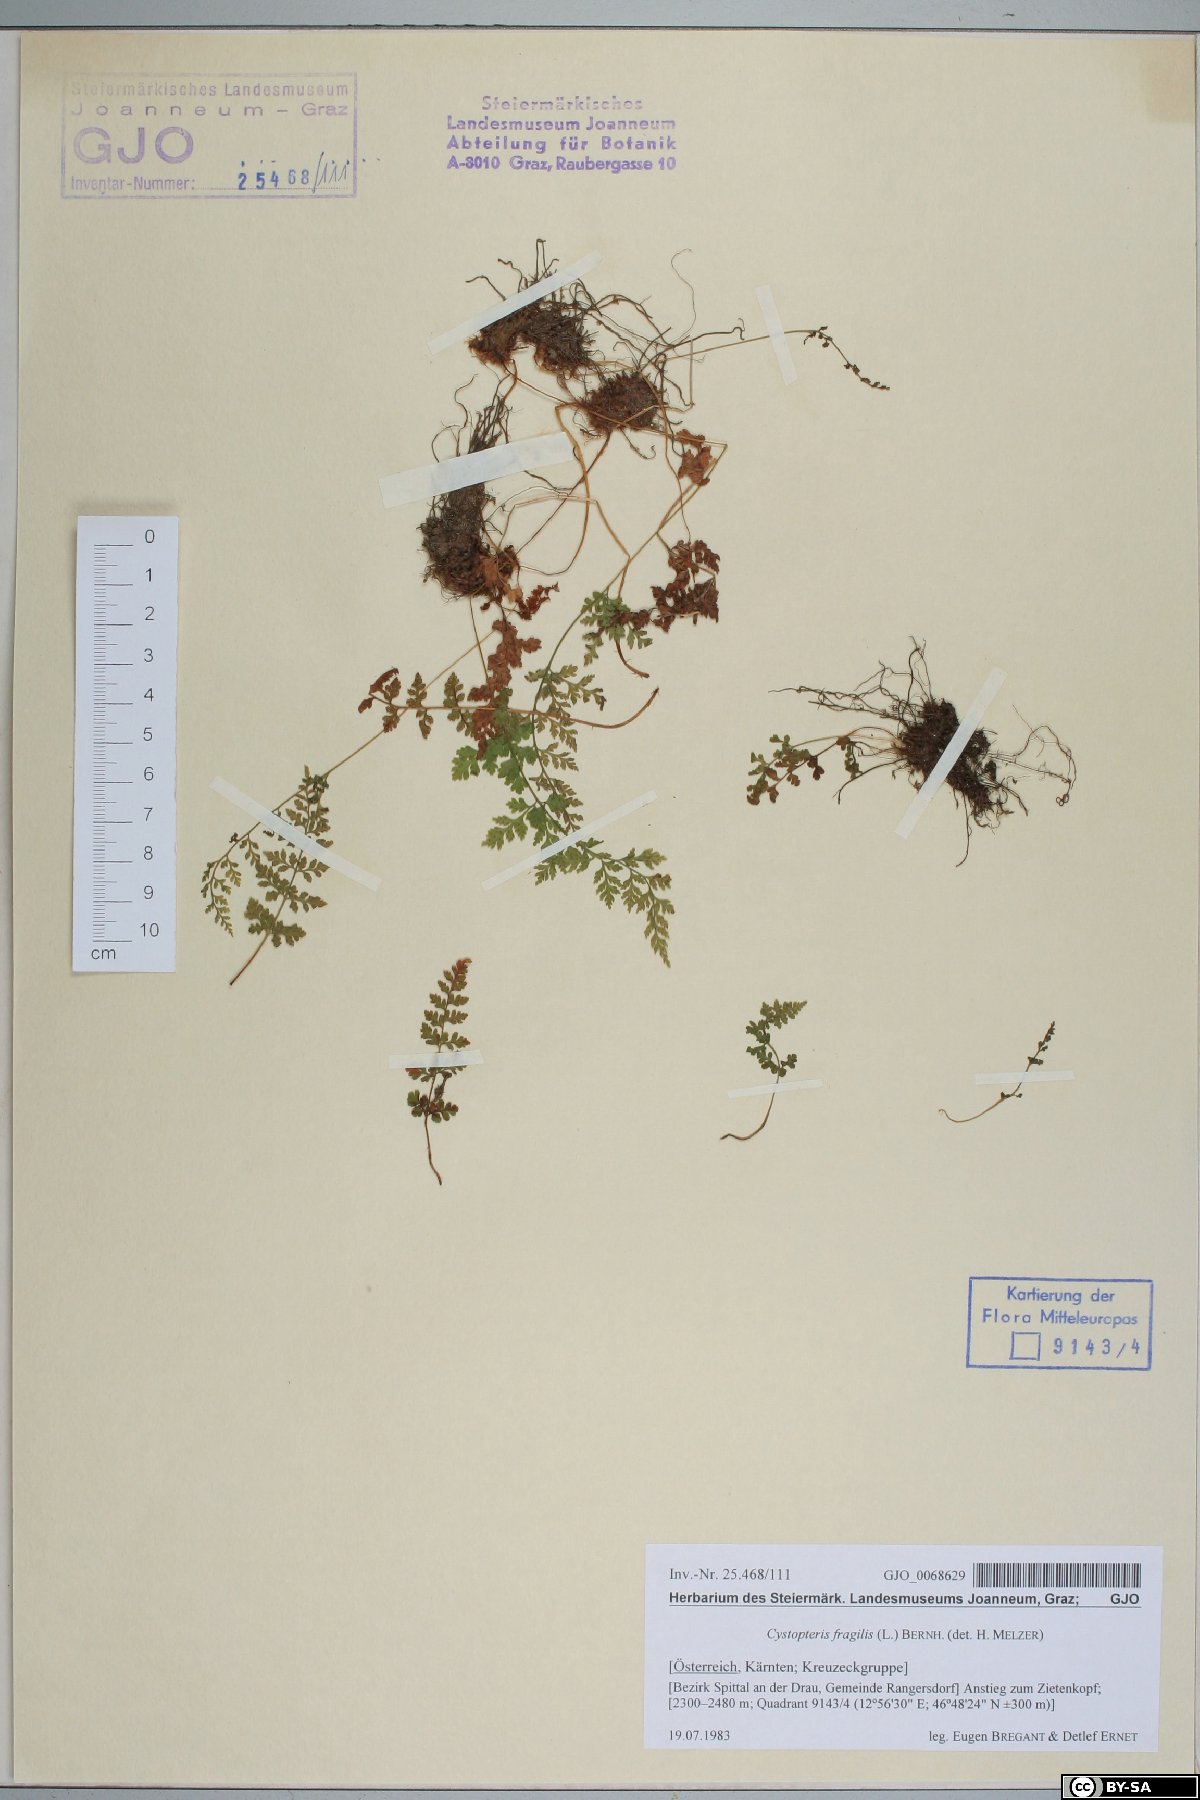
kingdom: Plantae
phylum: Tracheophyta
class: Polypodiopsida
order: Polypodiales
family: Cystopteridaceae
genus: Cystopteris
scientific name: Cystopteris fragilis
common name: Brittle bladder fern
